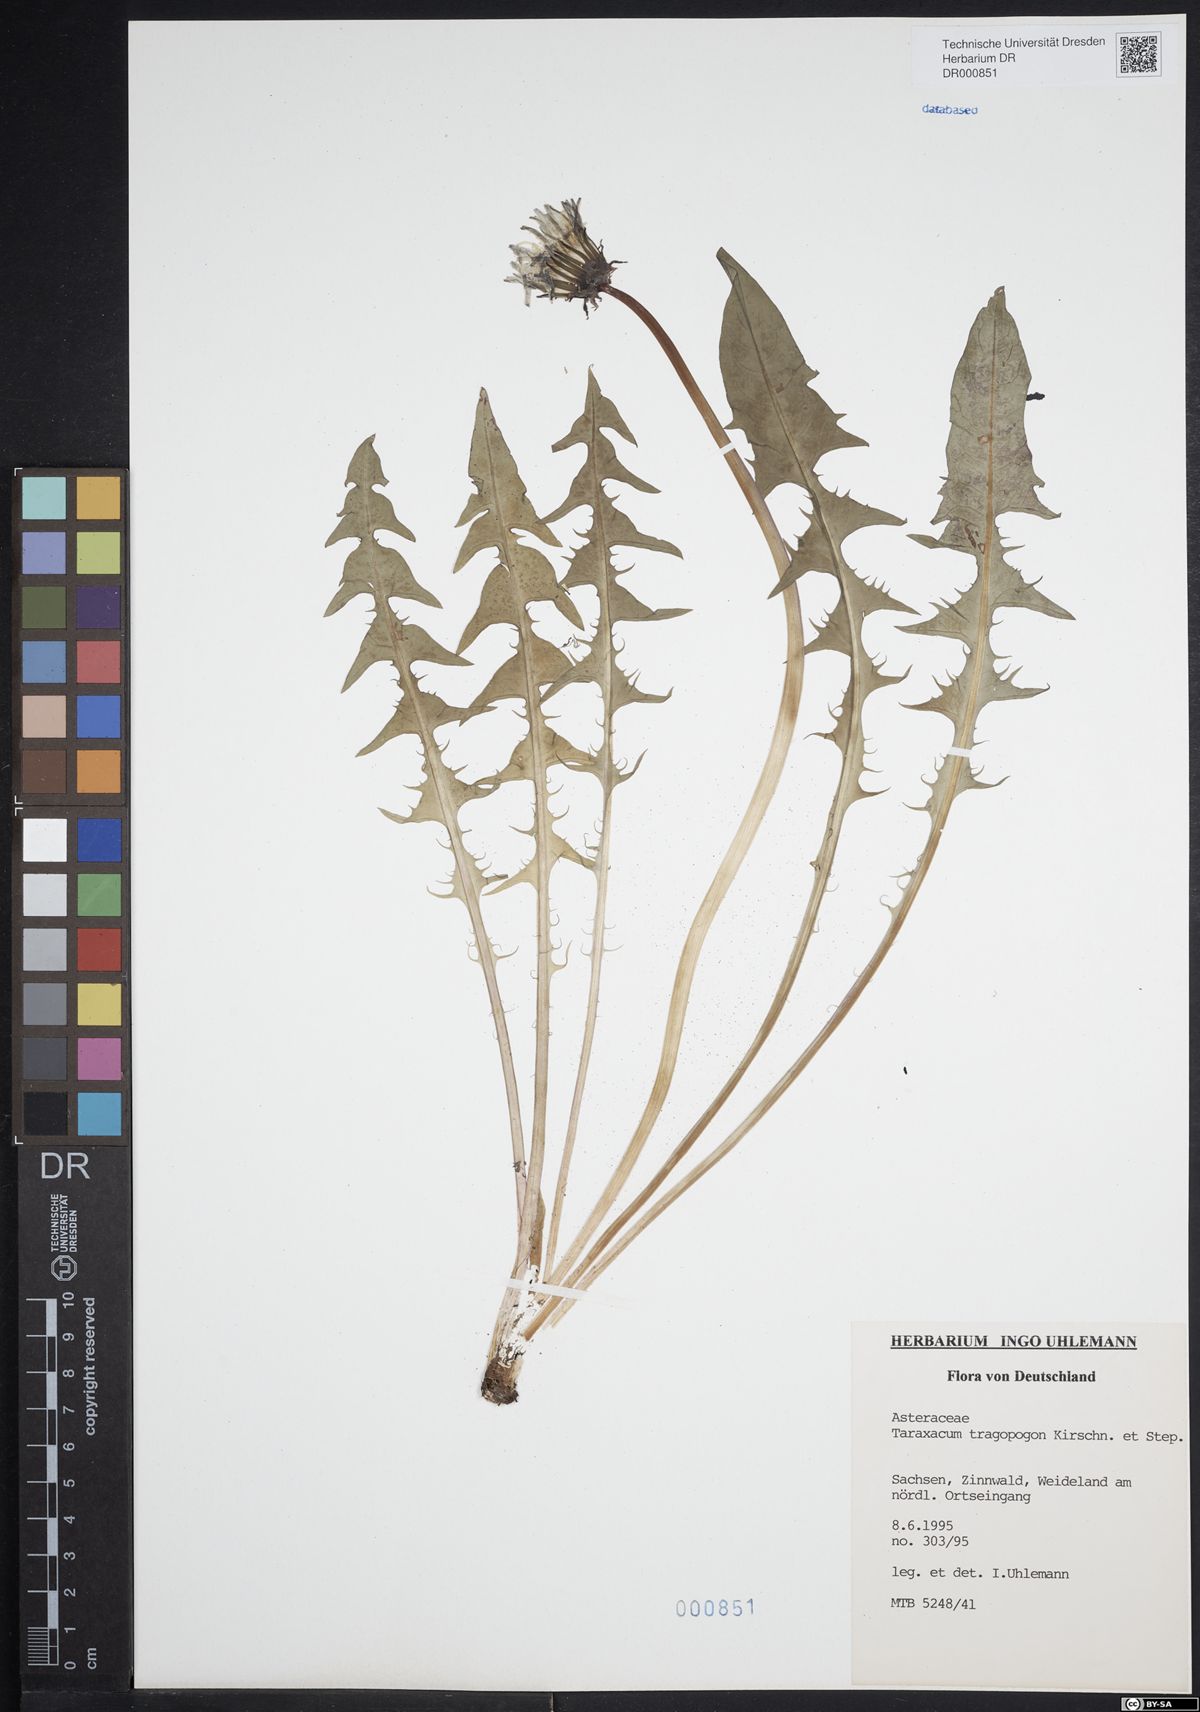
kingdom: Plantae
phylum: Tracheophyta
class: Magnoliopsida
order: Asterales
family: Asteraceae
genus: Taraxacum
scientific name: Taraxacum porrigentilobatum
